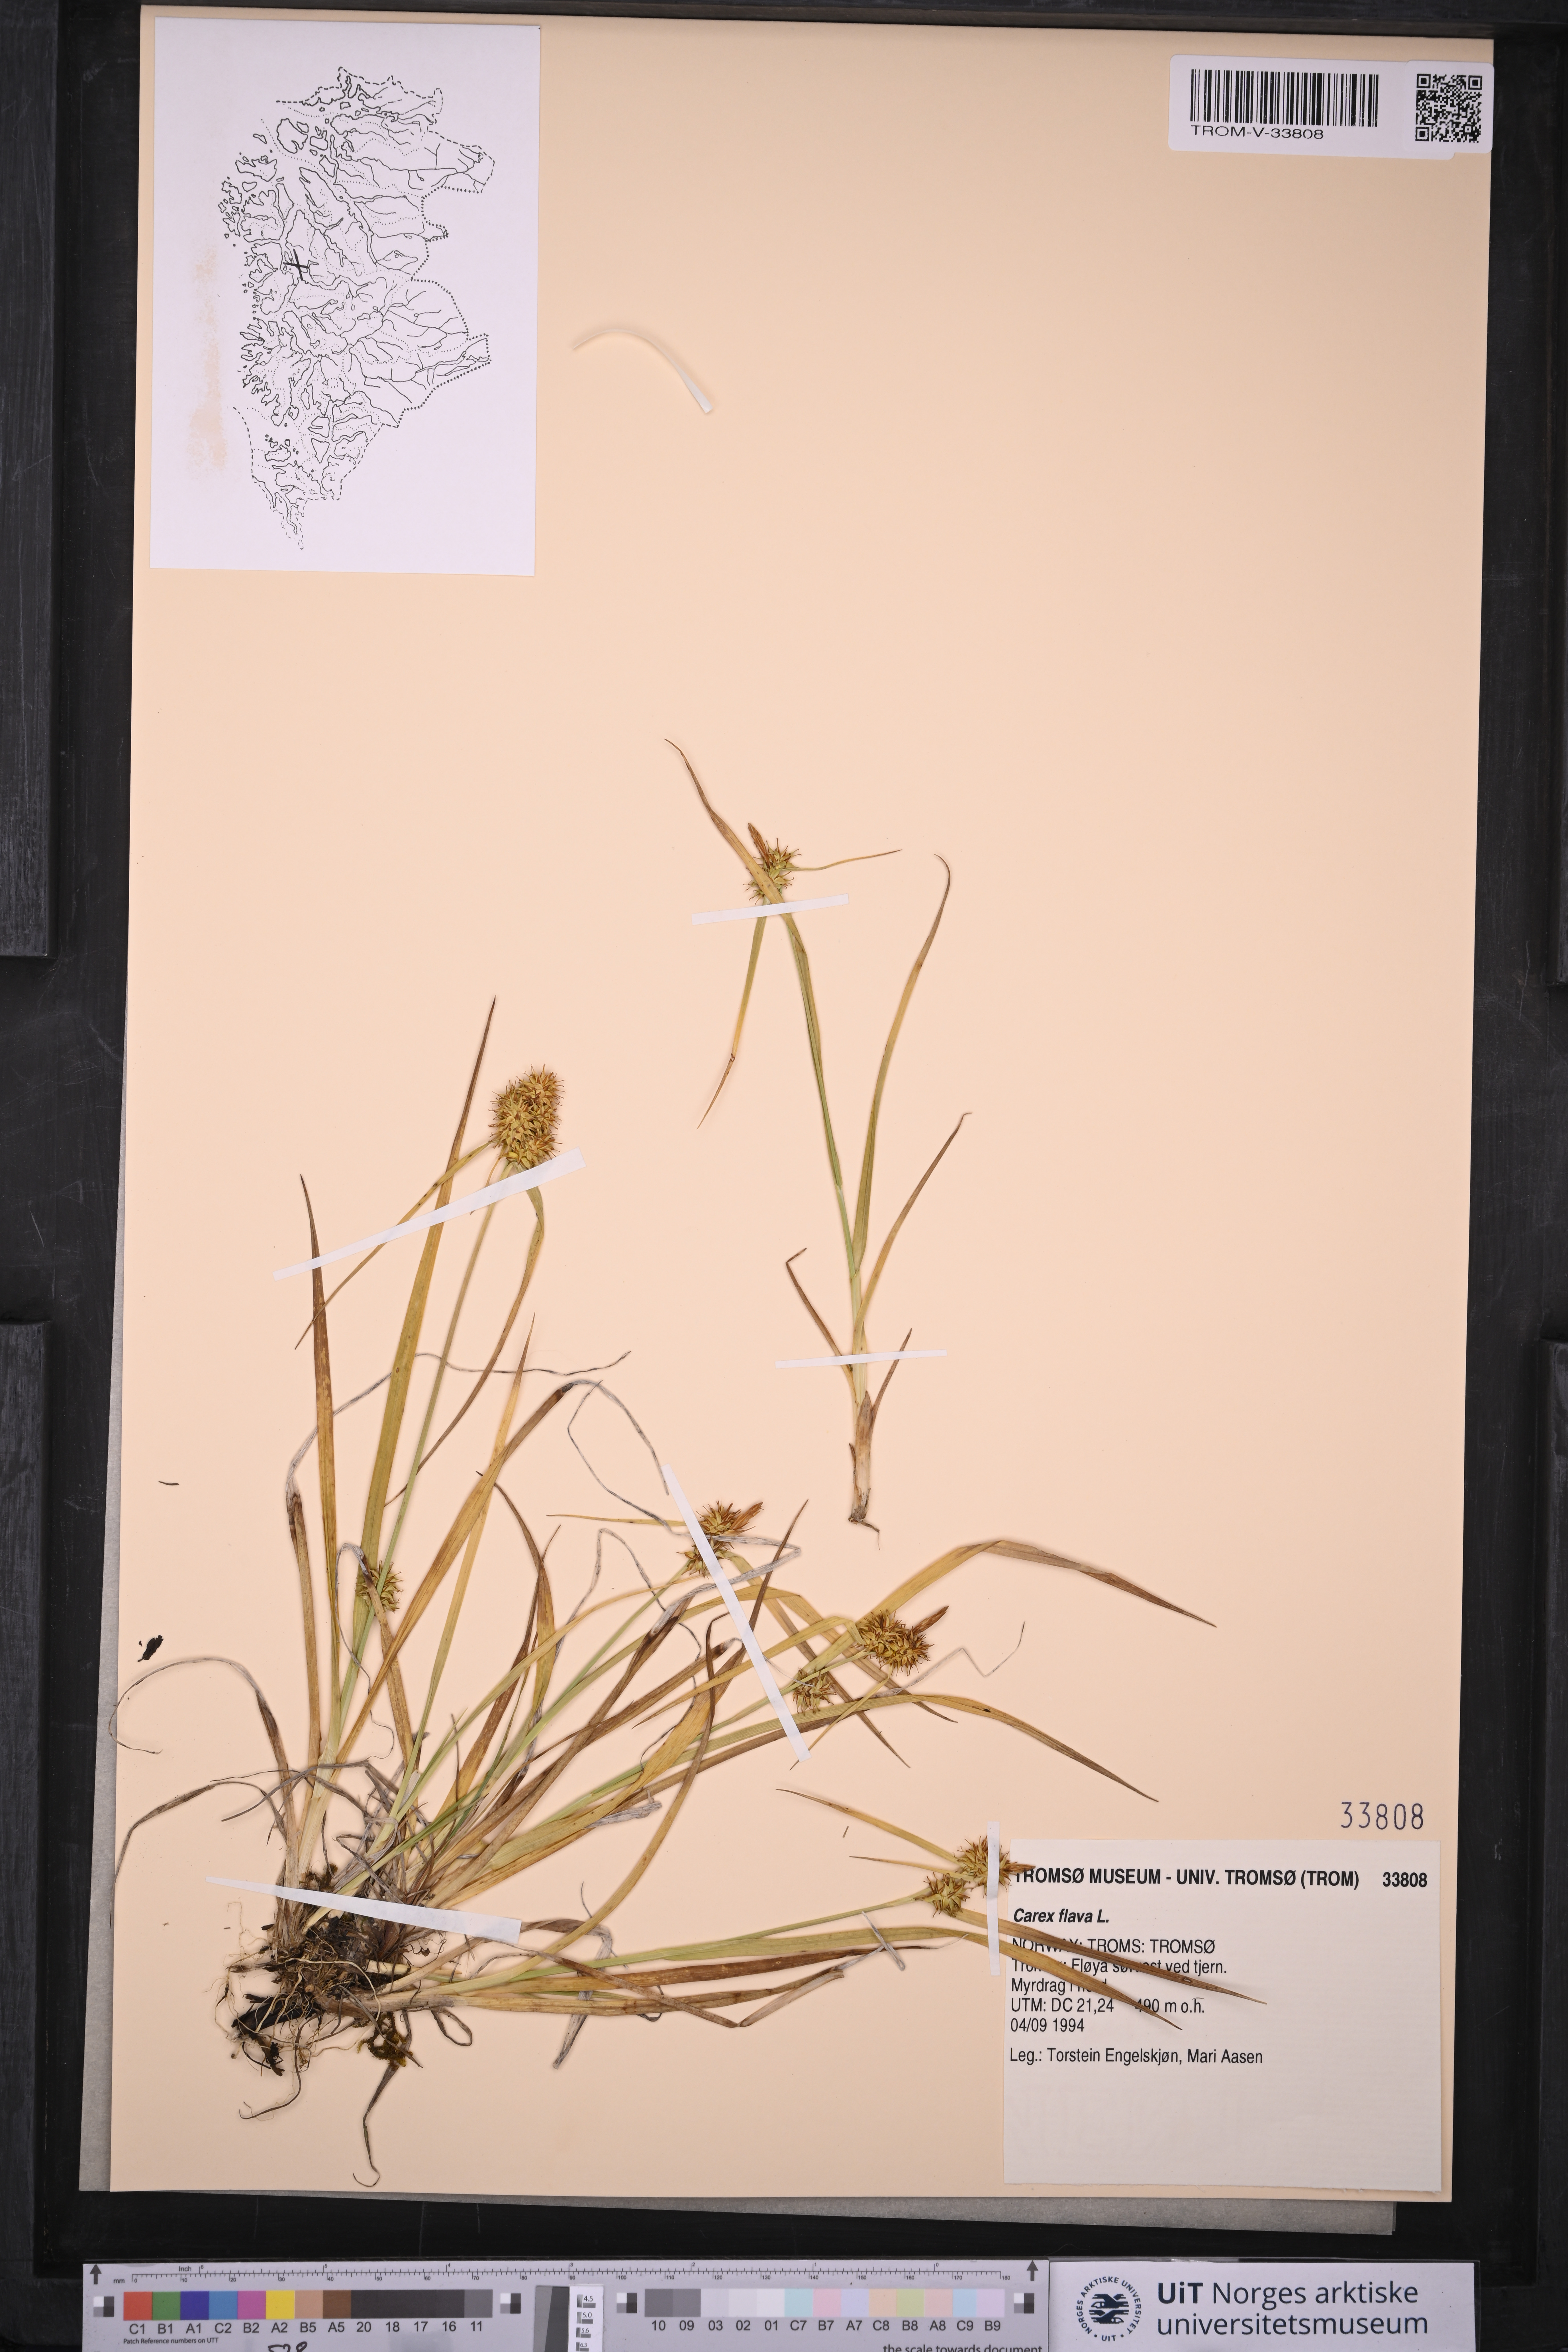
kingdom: Plantae
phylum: Tracheophyta
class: Liliopsida
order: Poales
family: Cyperaceae
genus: Carex
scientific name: Carex flava
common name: Large yellow-sedge
